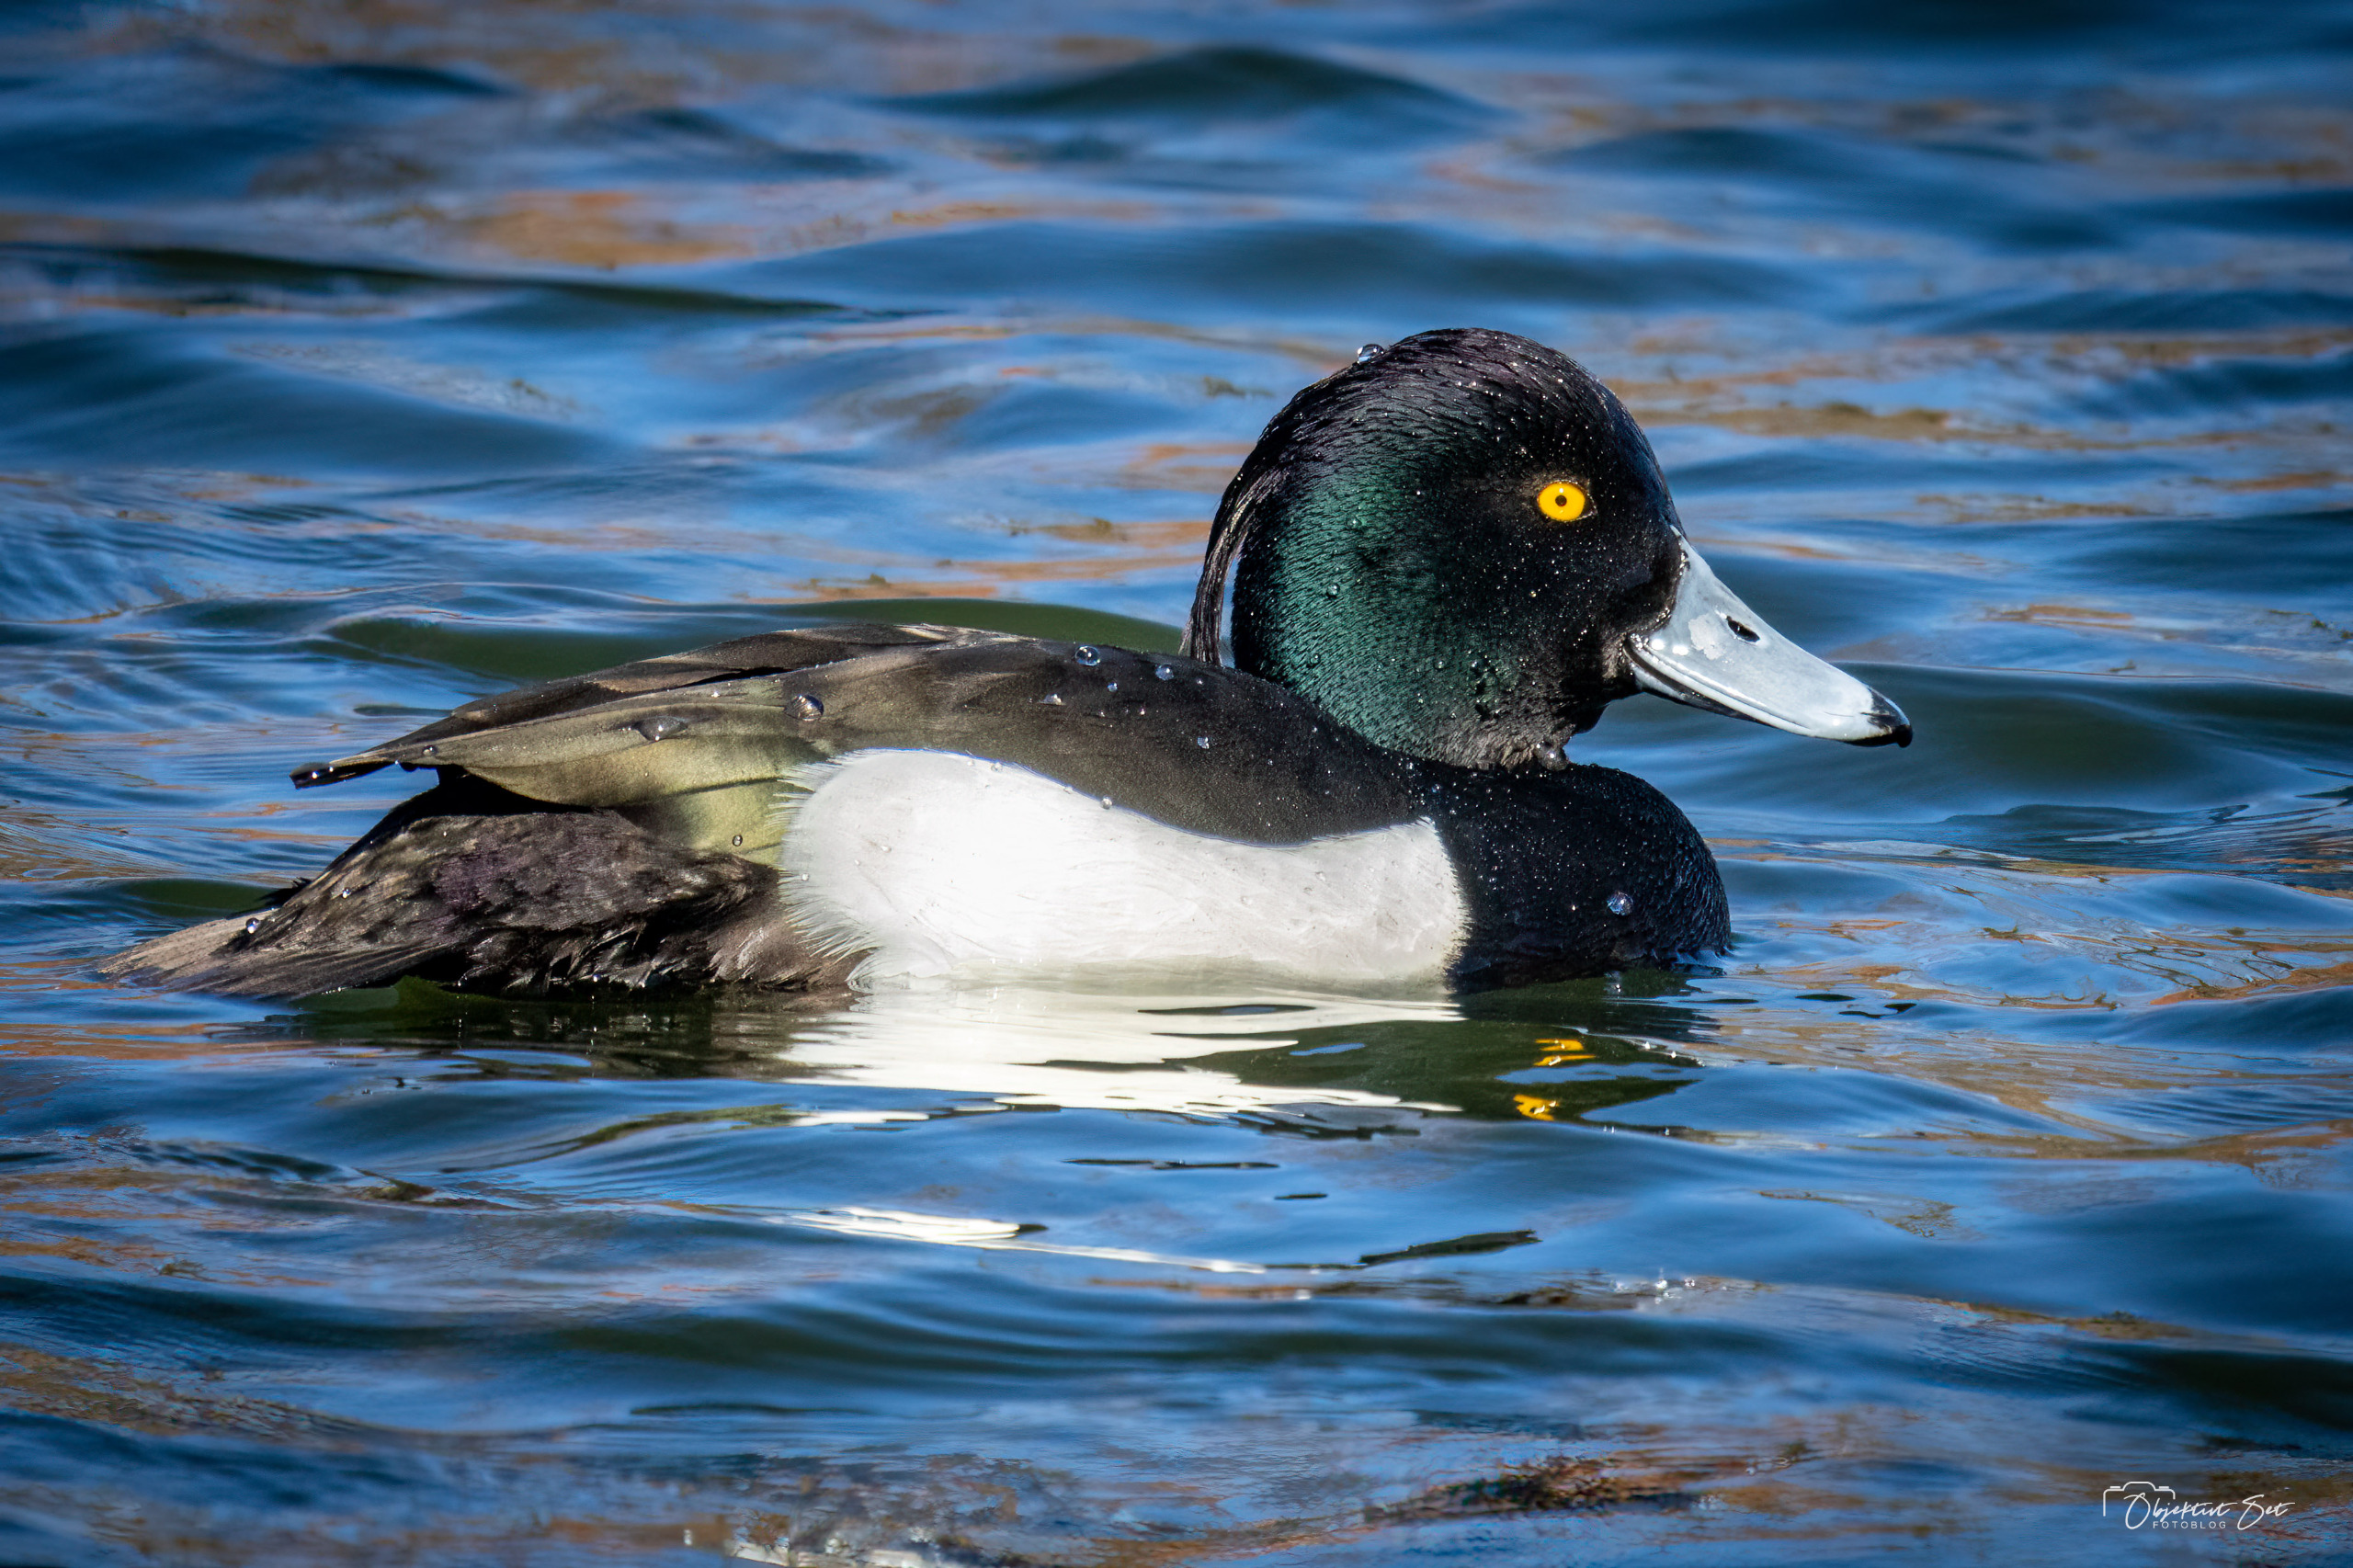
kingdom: Animalia
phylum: Chordata
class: Aves
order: Anseriformes
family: Anatidae
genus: Aythya
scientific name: Aythya fuligula
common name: Troldand
